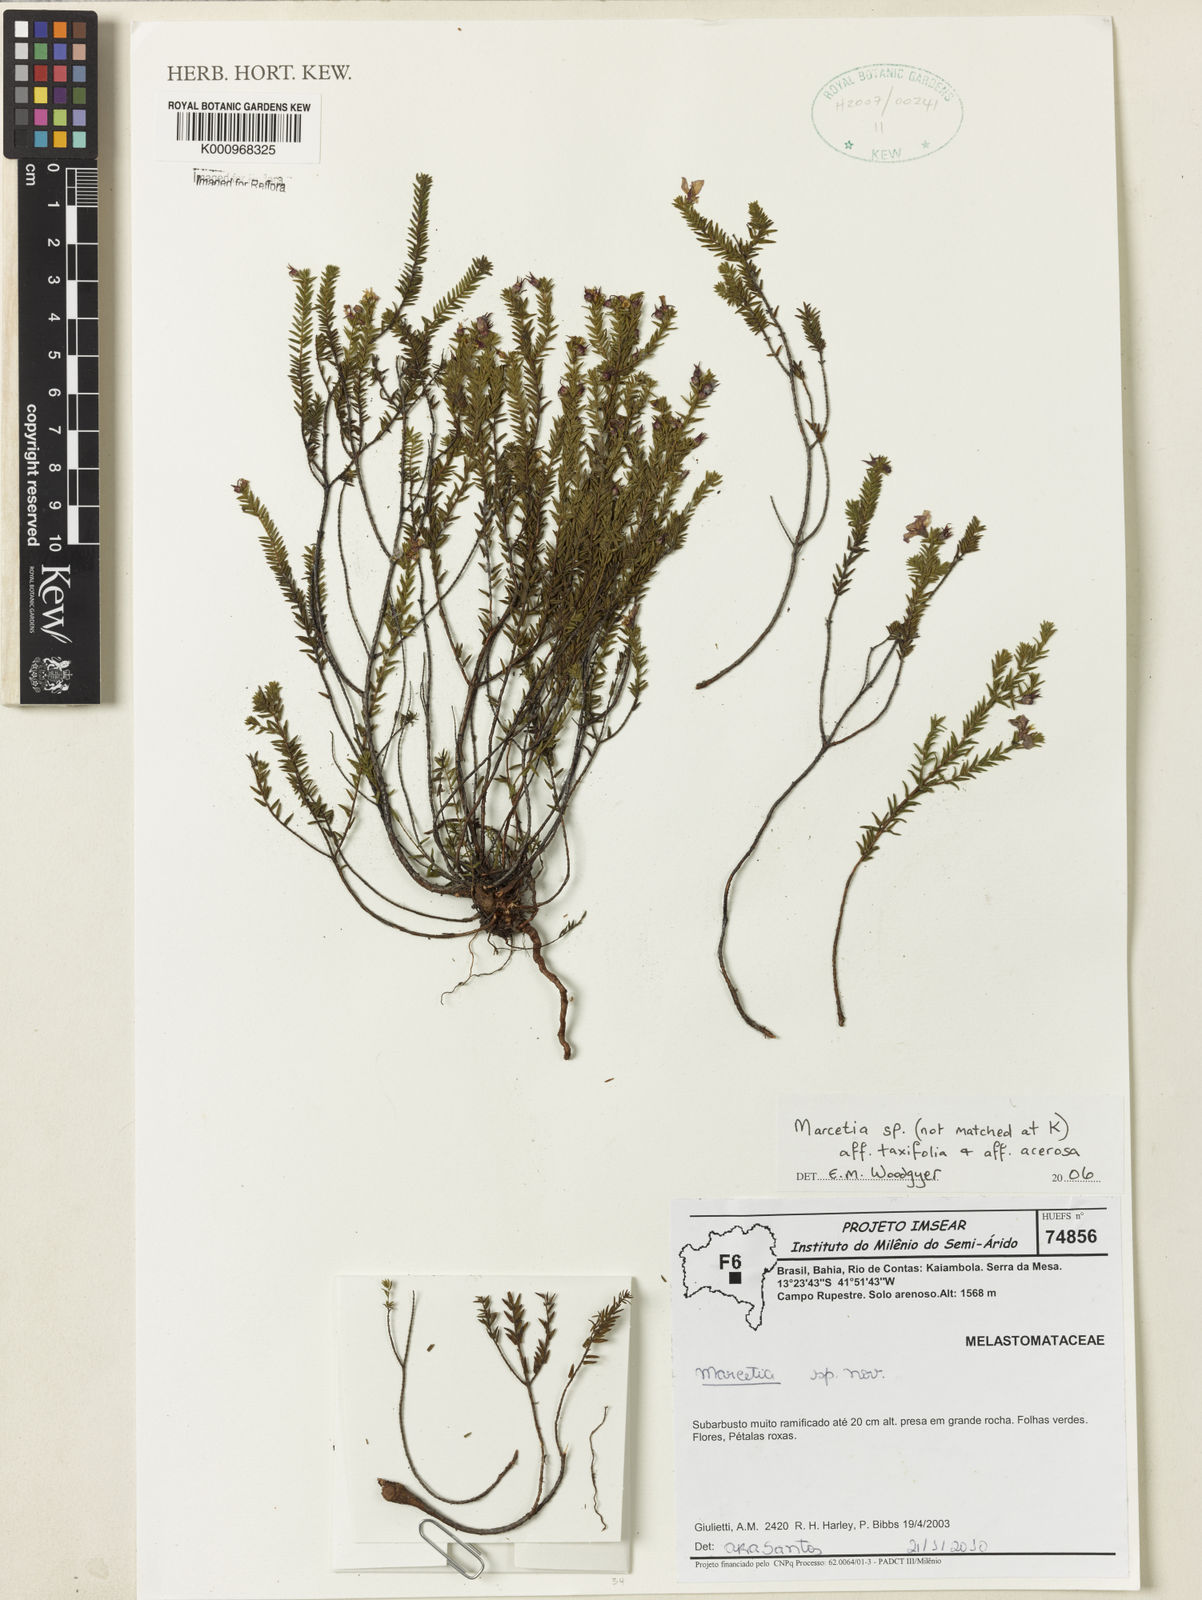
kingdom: Plantae
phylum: Tracheophyta
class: Magnoliopsida
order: Myrtales
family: Melastomataceae
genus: Marcetia
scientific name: Marcetia
